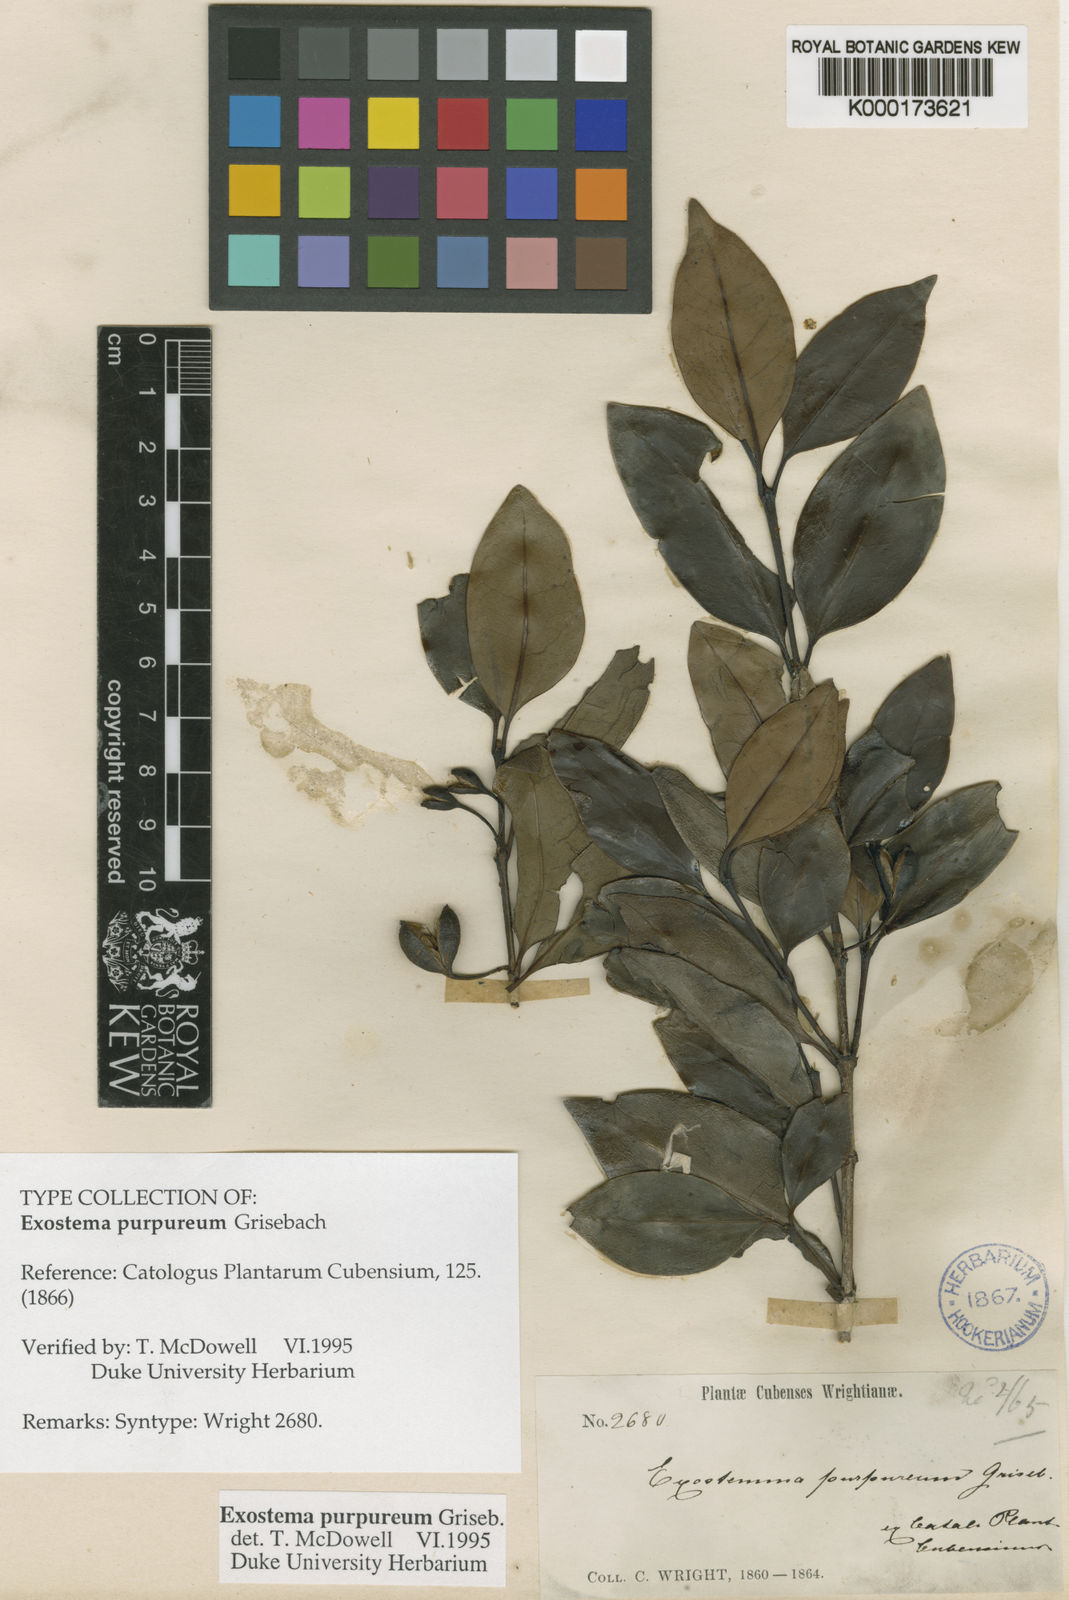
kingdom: Plantae
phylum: Tracheophyta
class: Magnoliopsida
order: Gentianales
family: Rubiaceae
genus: Exostema
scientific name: Exostema purpureum
